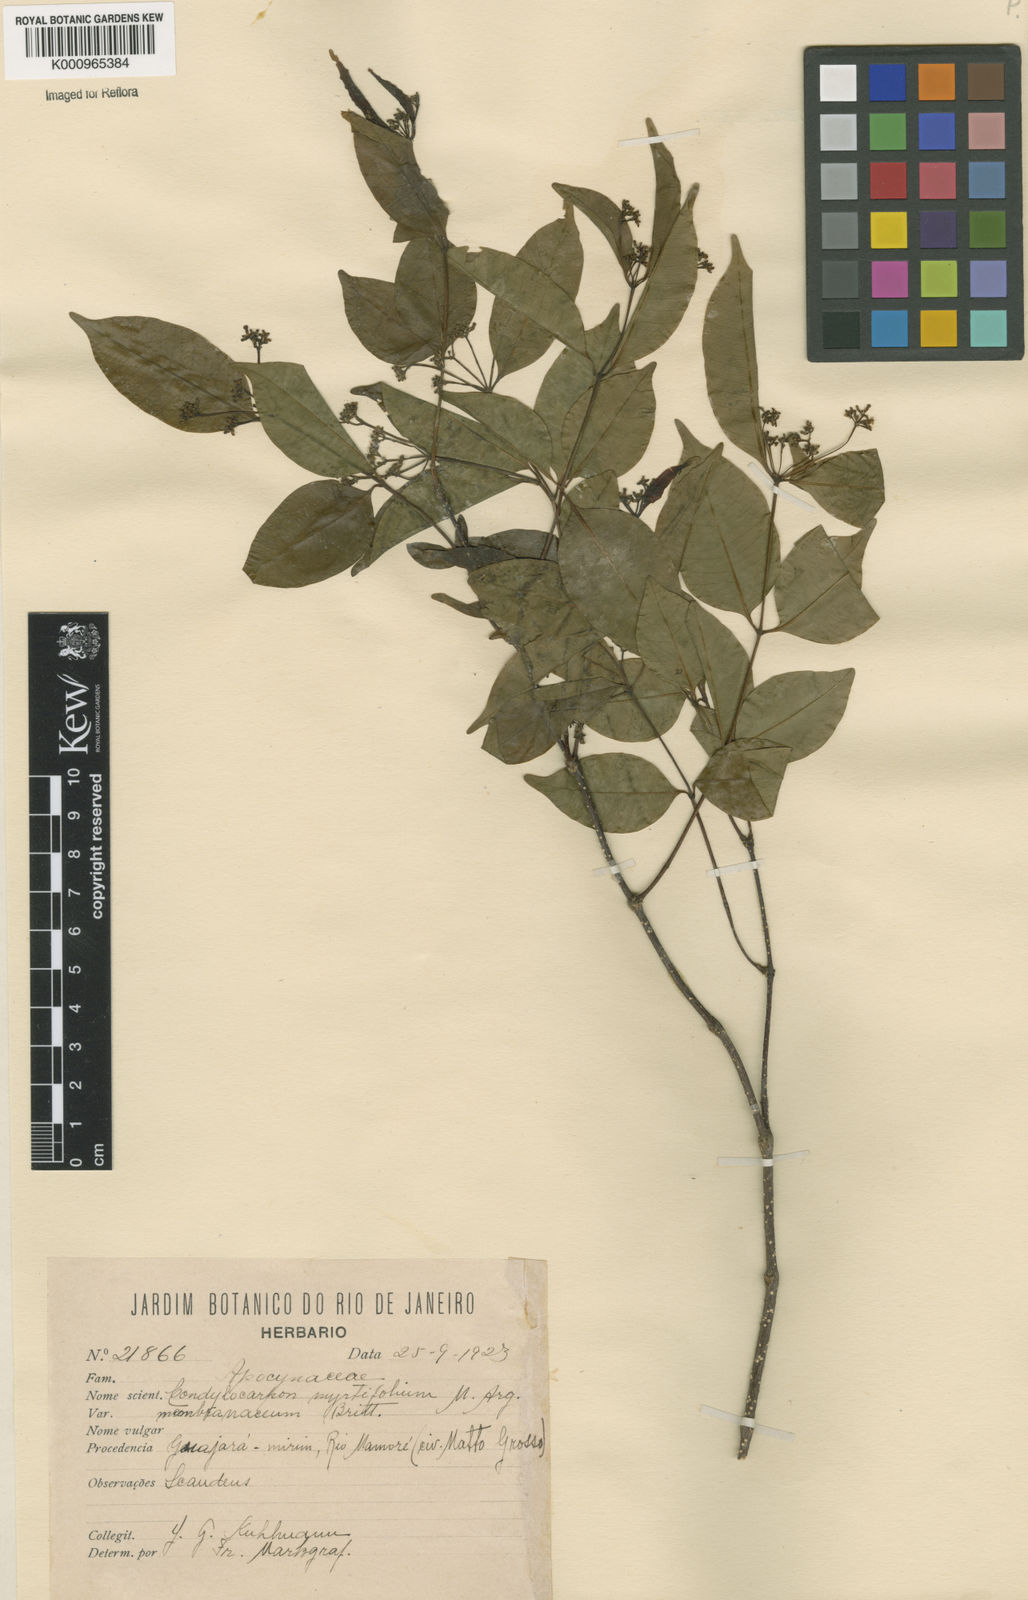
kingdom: Plantae
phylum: Tracheophyta
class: Magnoliopsida
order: Gentianales
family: Apocynaceae
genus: Condylocarpon
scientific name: Condylocarpon
